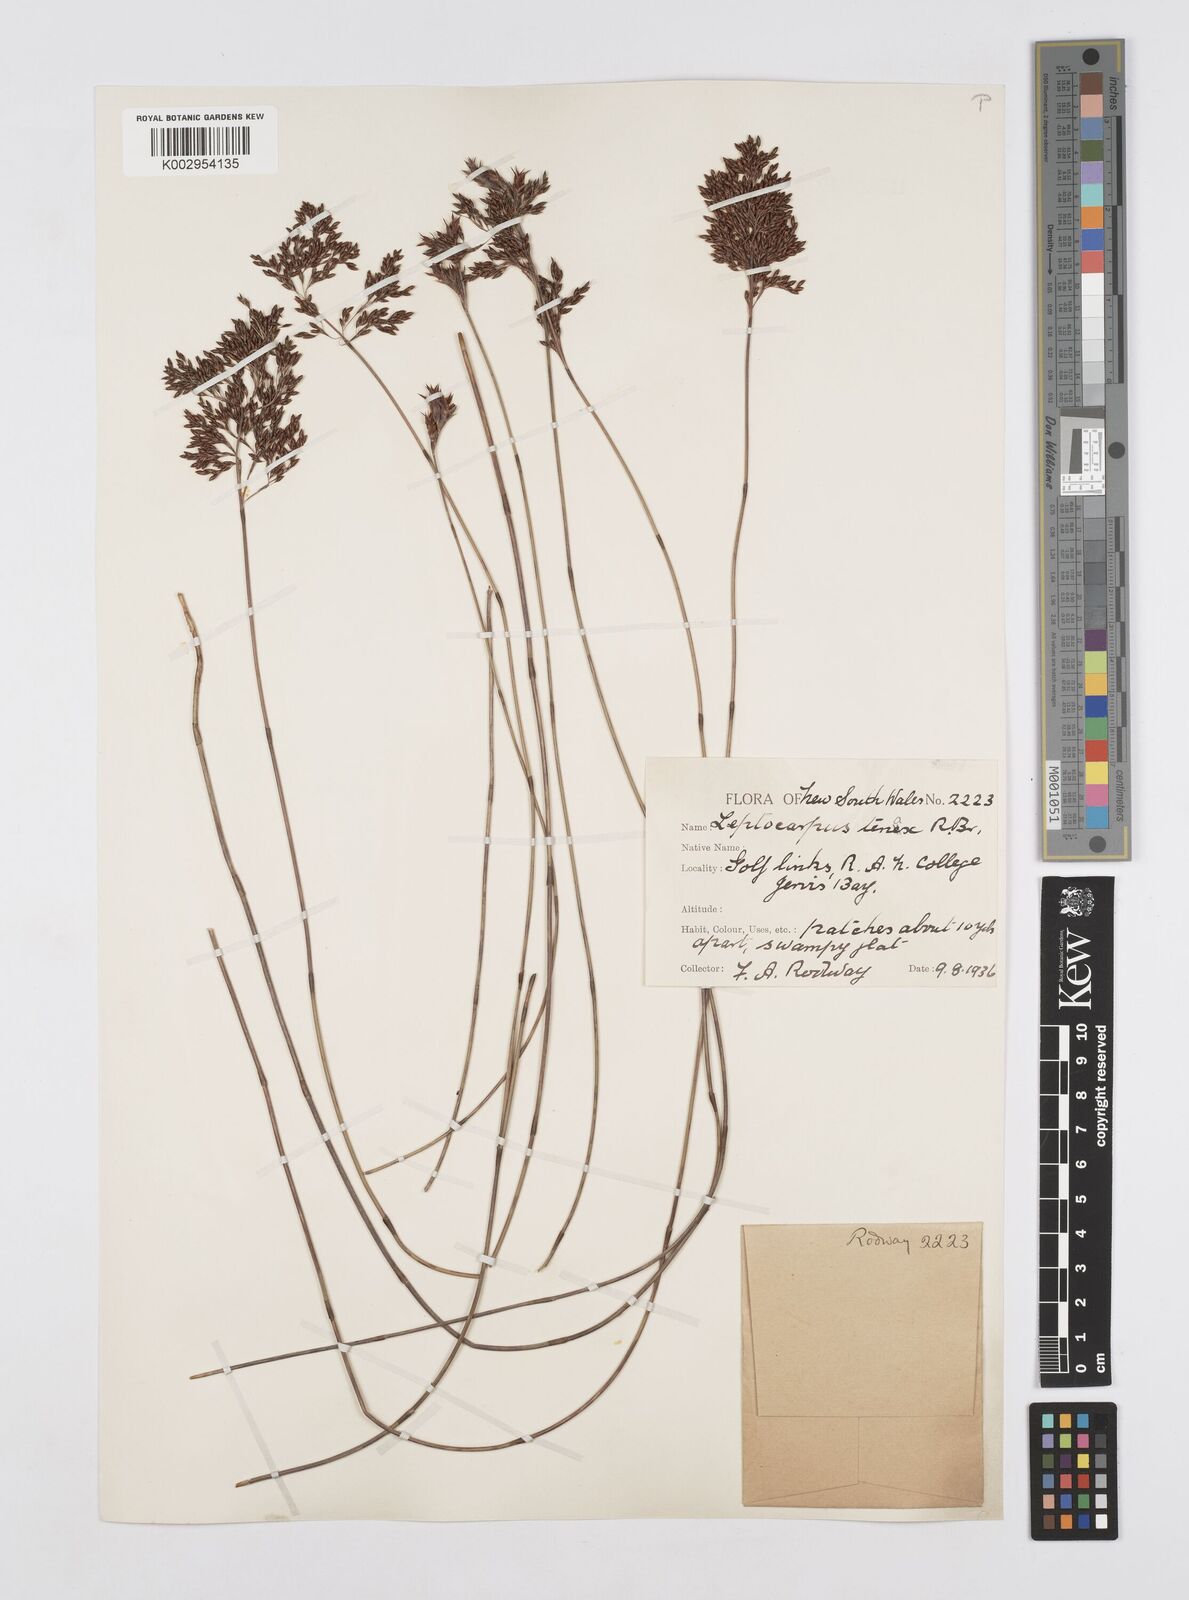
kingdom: Plantae
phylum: Tracheophyta
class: Liliopsida
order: Poales
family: Restionaceae
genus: Leptocarpus
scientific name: Leptocarpus tenax
